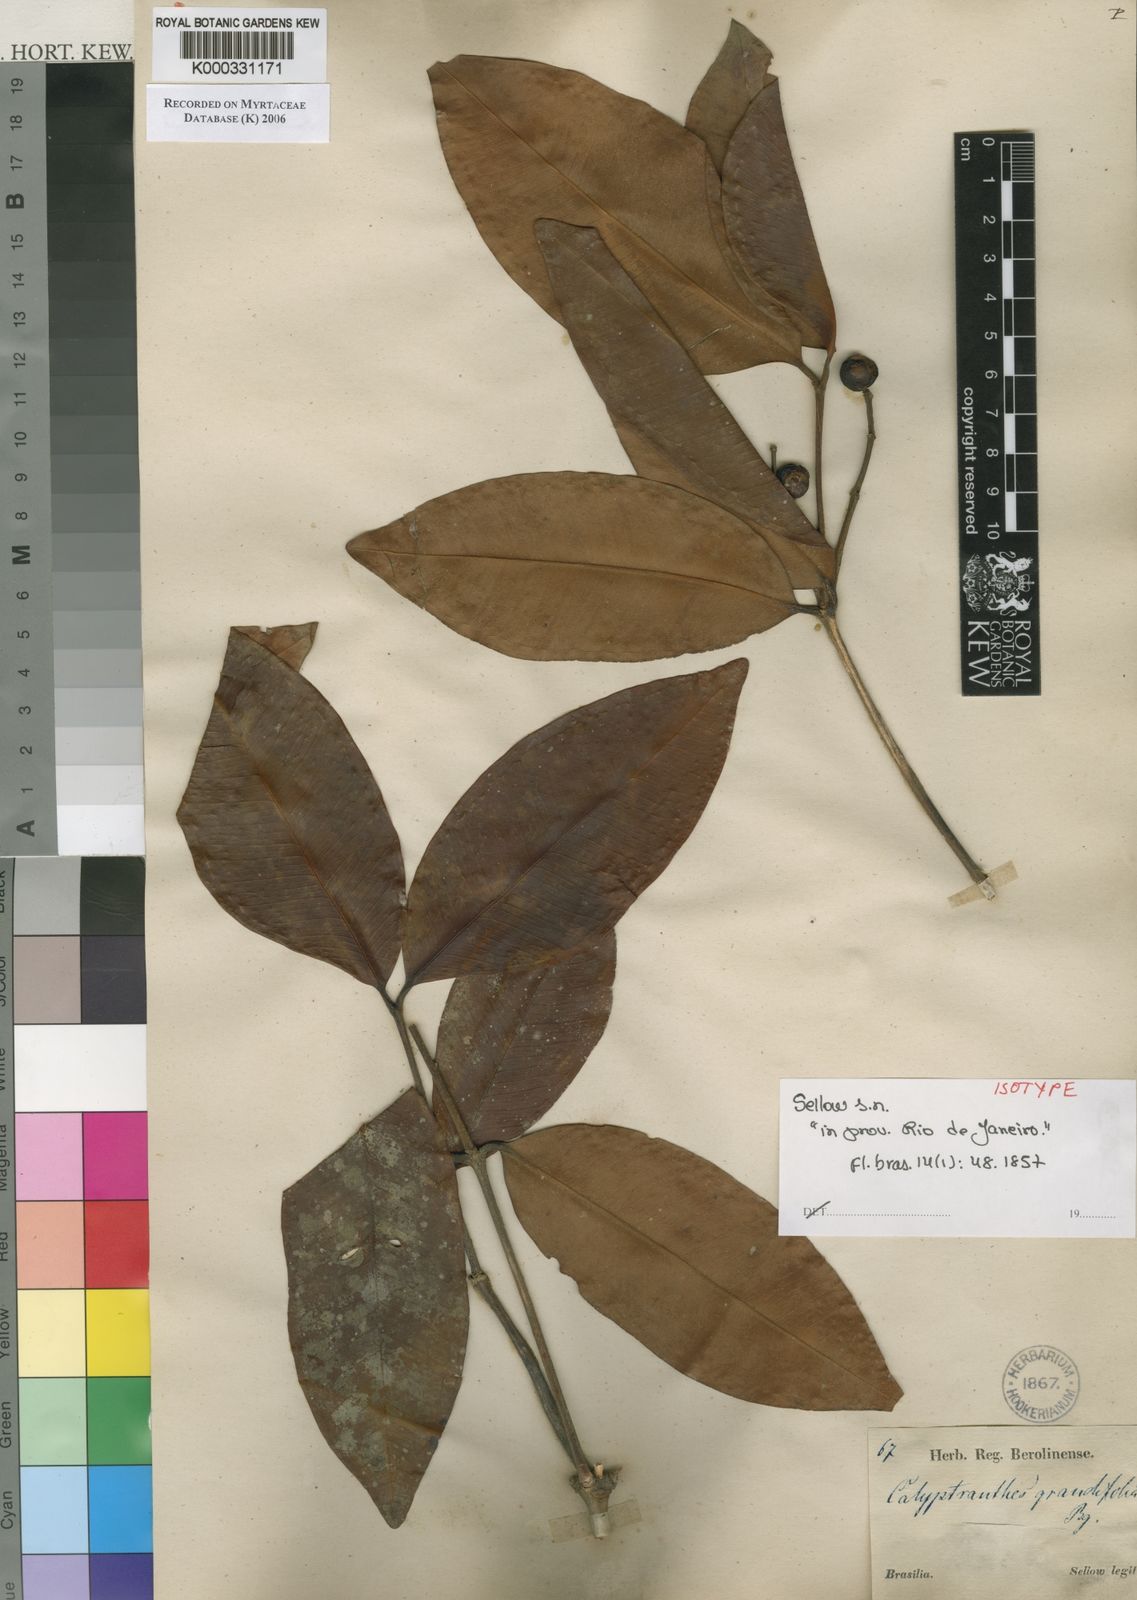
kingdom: Plantae
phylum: Tracheophyta
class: Magnoliopsida
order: Myrtales
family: Myrtaceae
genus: Calyptranthes
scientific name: Calyptranthes grandifolia
